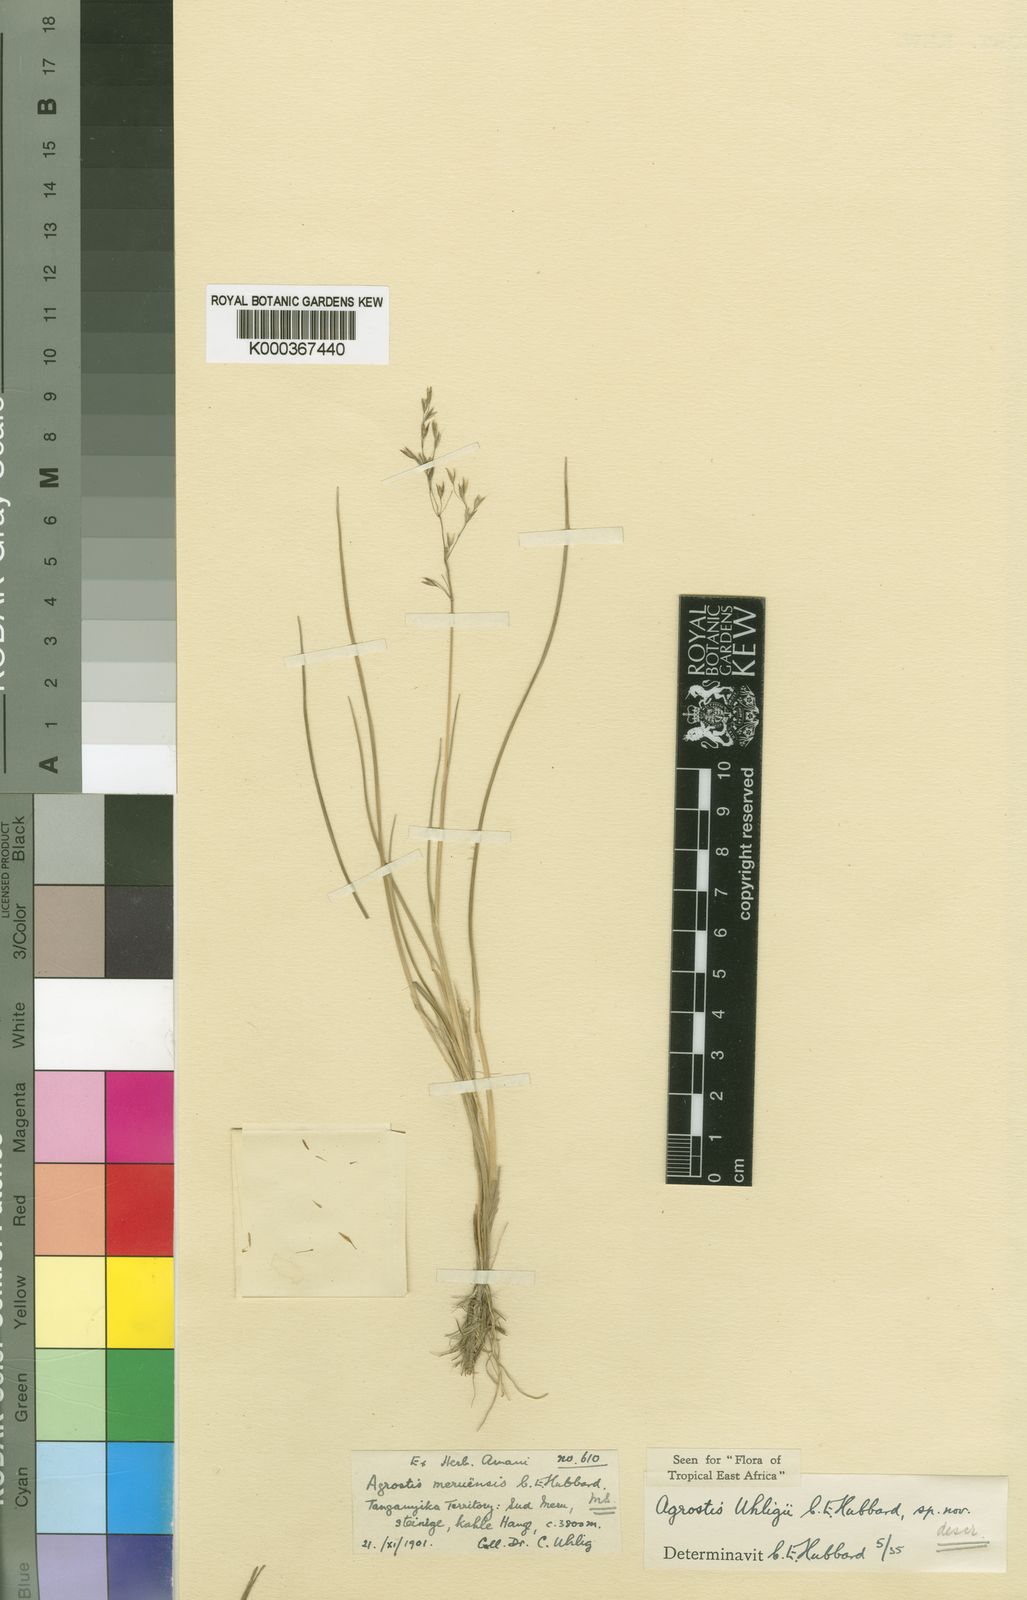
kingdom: Plantae
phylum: Tracheophyta
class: Liliopsida
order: Poales
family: Poaceae
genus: Agrostis
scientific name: Agrostis volkensii
